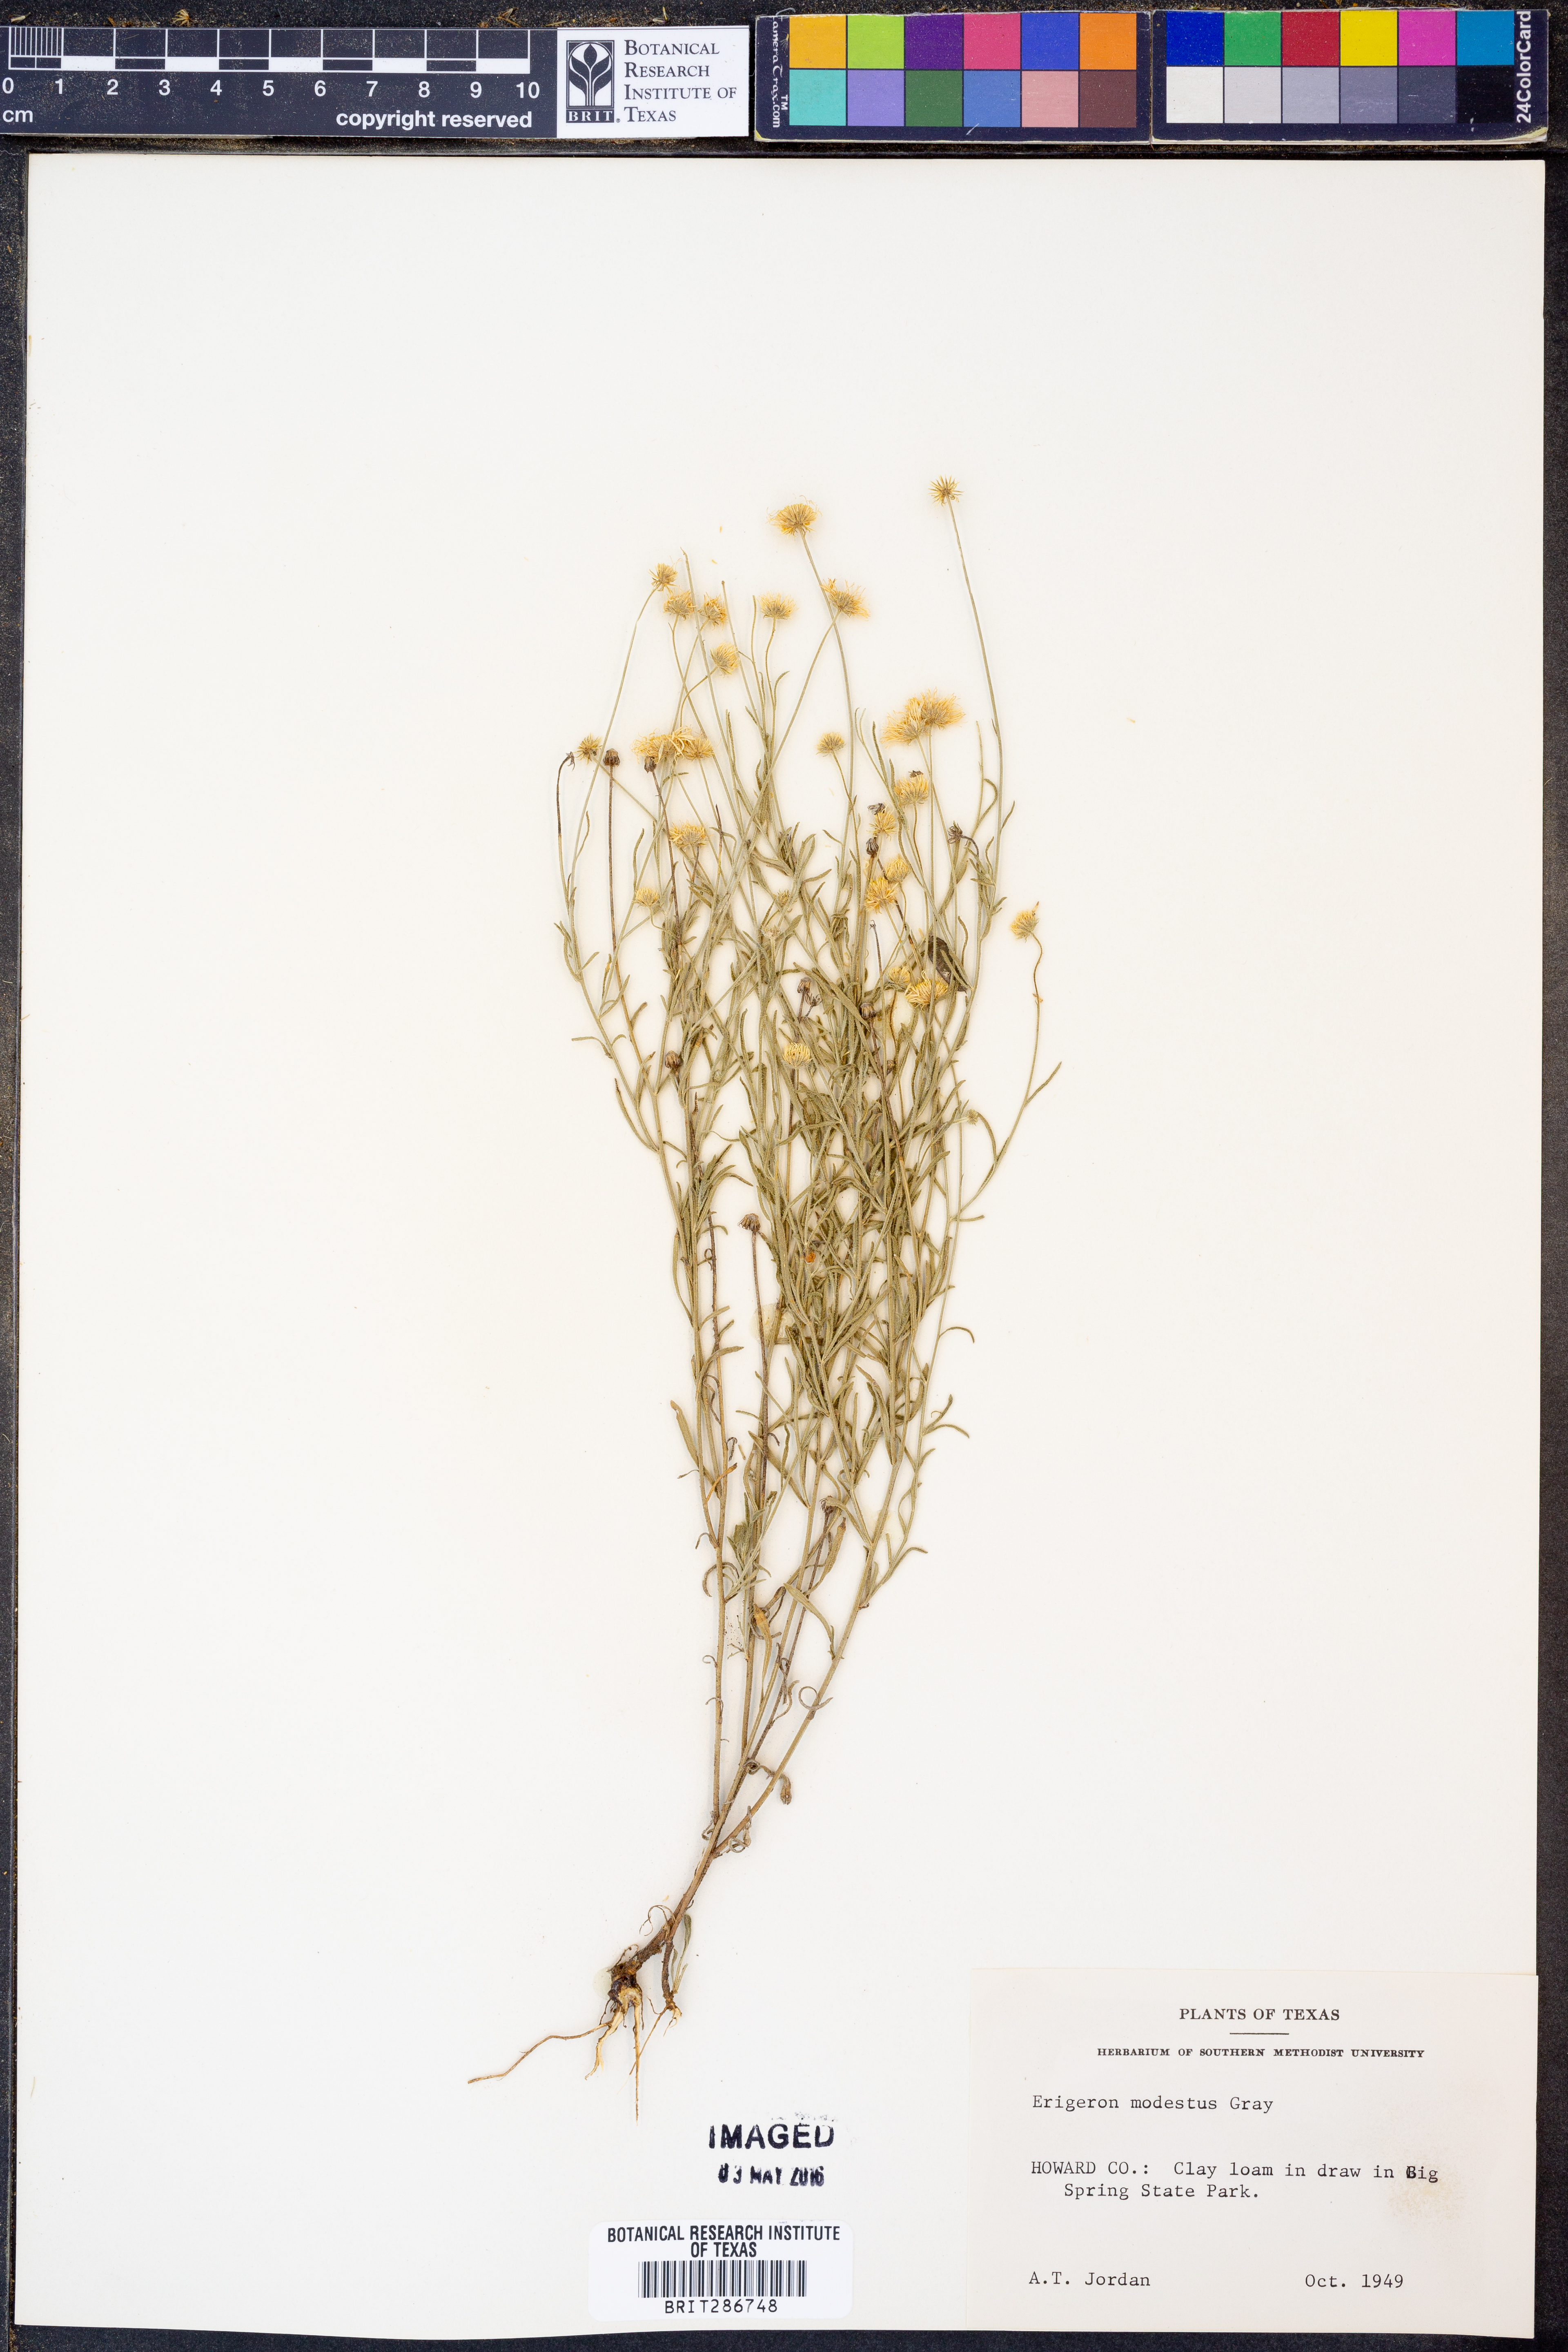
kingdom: Plantae
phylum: Tracheophyta
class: Magnoliopsida
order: Asterales
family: Asteraceae
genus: Erigeron
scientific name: Erigeron modestus
